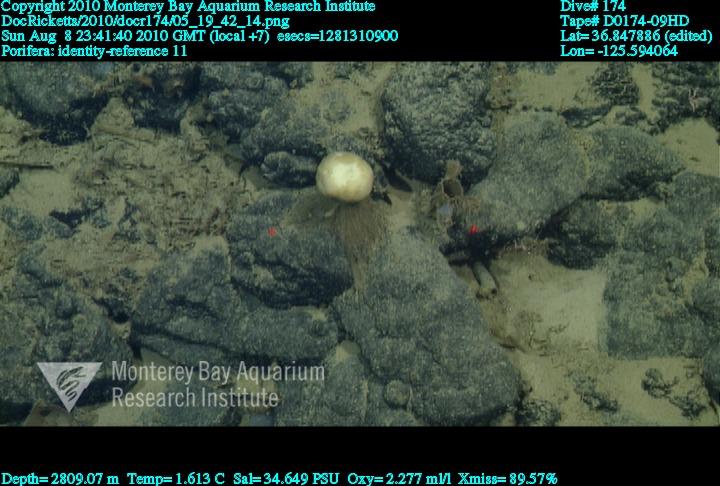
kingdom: Animalia
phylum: Porifera
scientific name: Porifera
